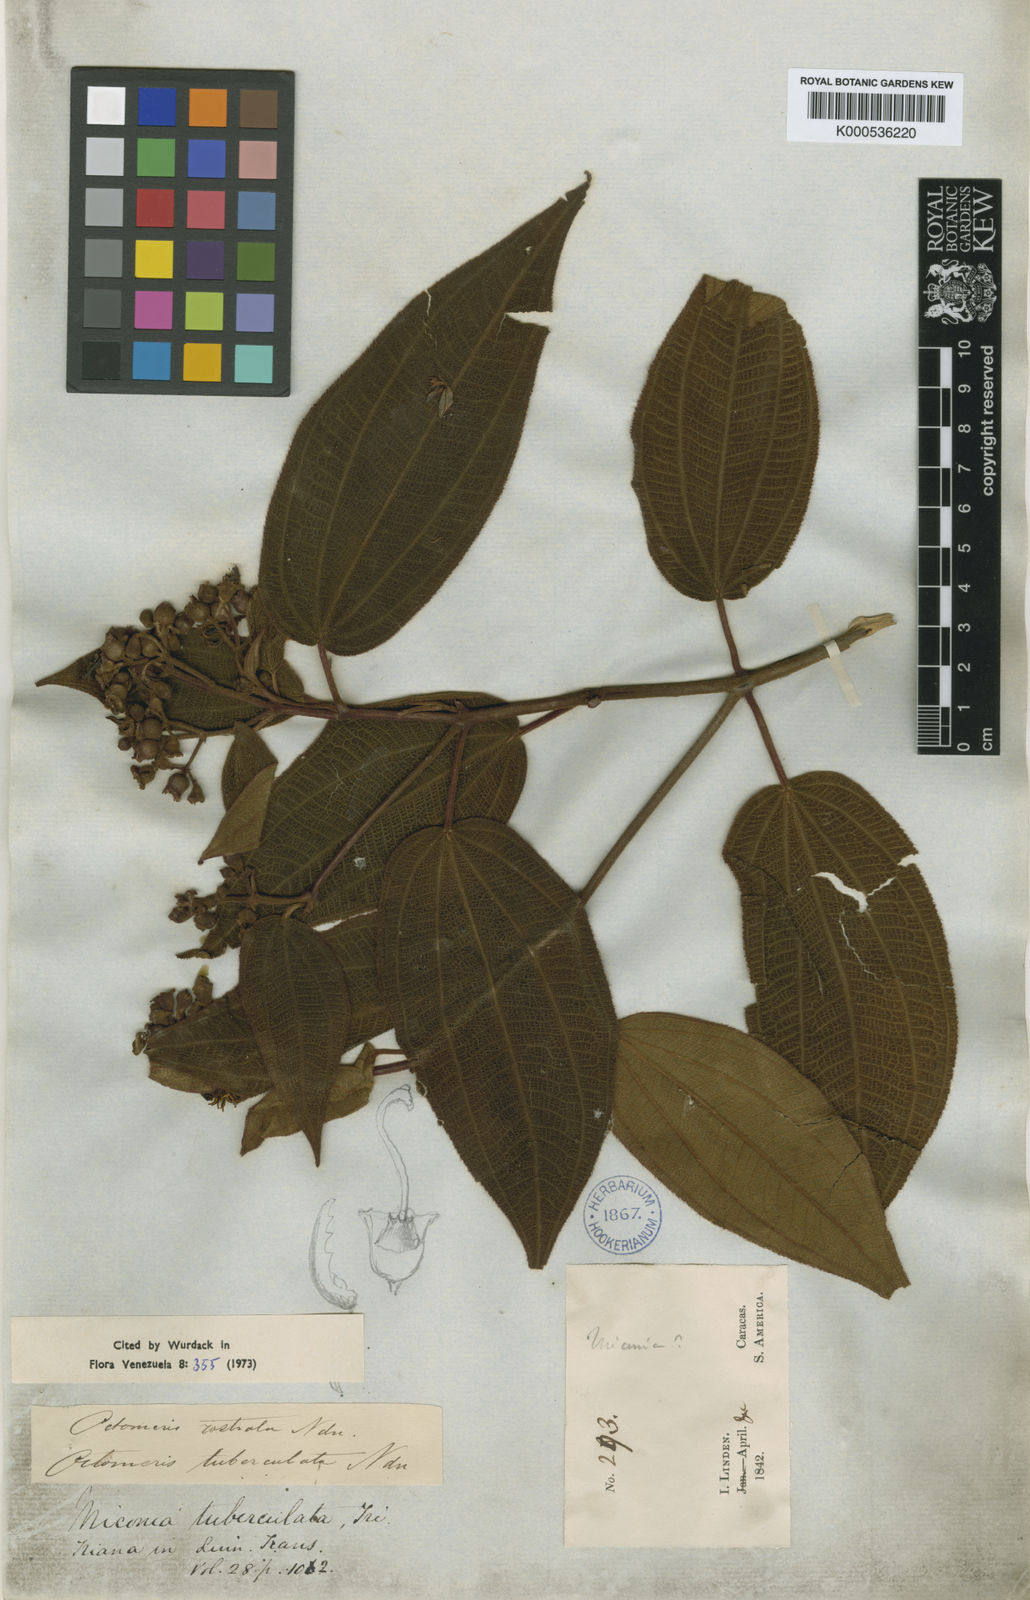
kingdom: Plantae
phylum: Tracheophyta
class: Magnoliopsida
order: Myrtales
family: Melastomataceae
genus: Miconia
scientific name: Miconia tuberculata
